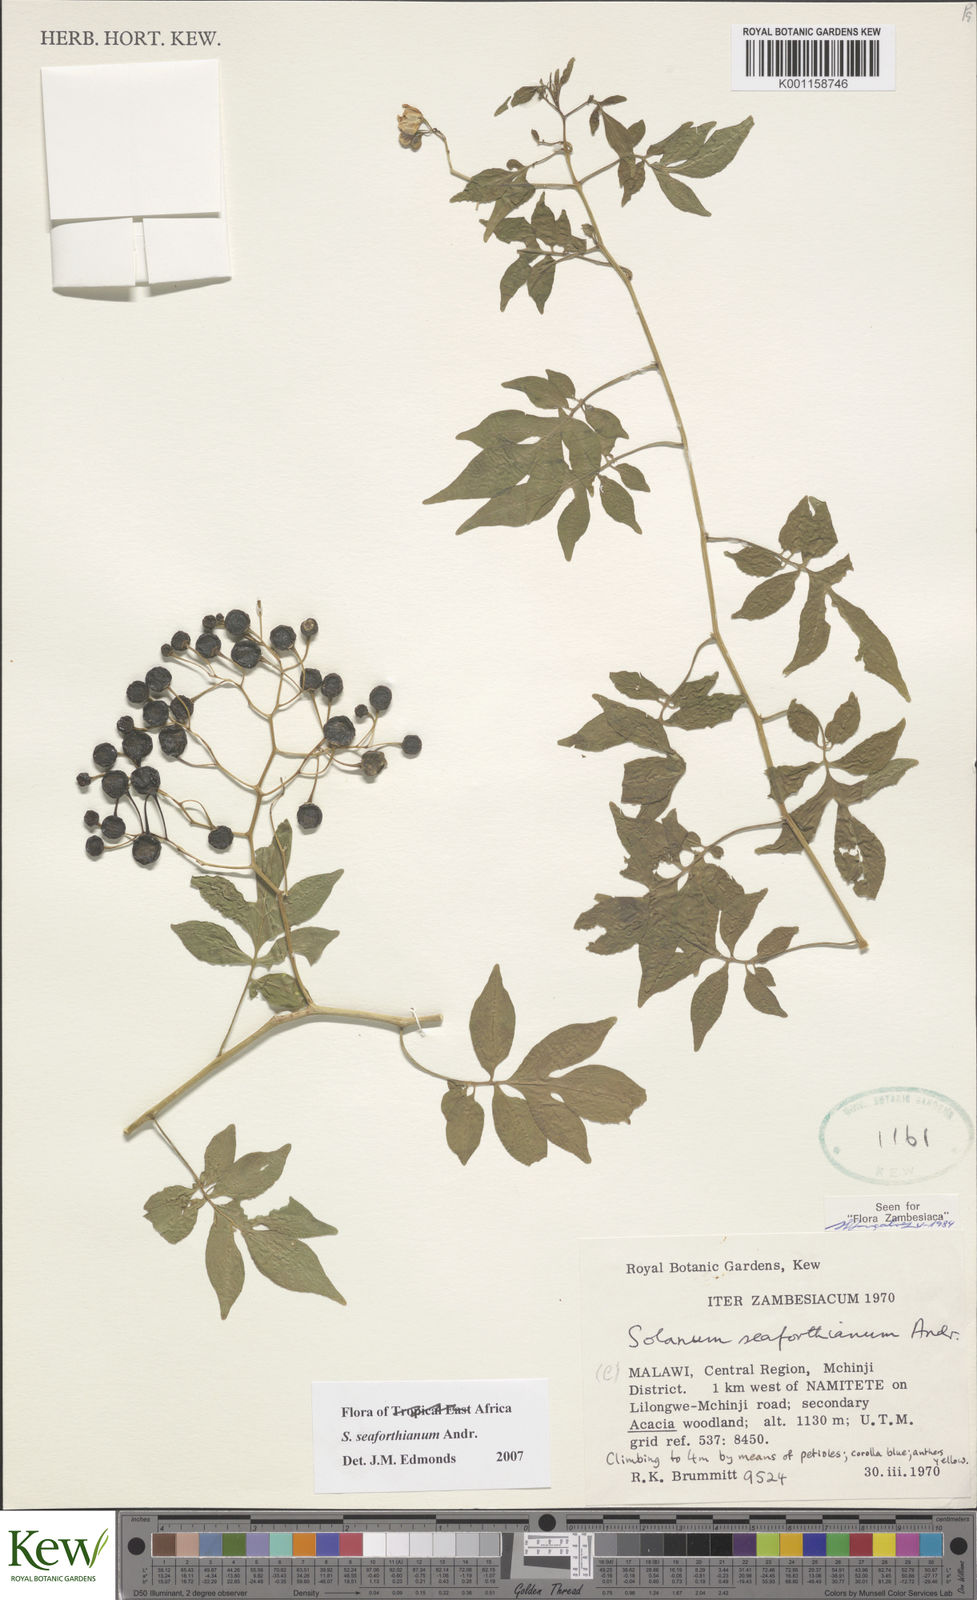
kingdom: Plantae
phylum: Tracheophyta
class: Magnoliopsida
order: Solanales
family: Solanaceae
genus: Solanum
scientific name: Solanum seaforthianum
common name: Brazilian nightshade
